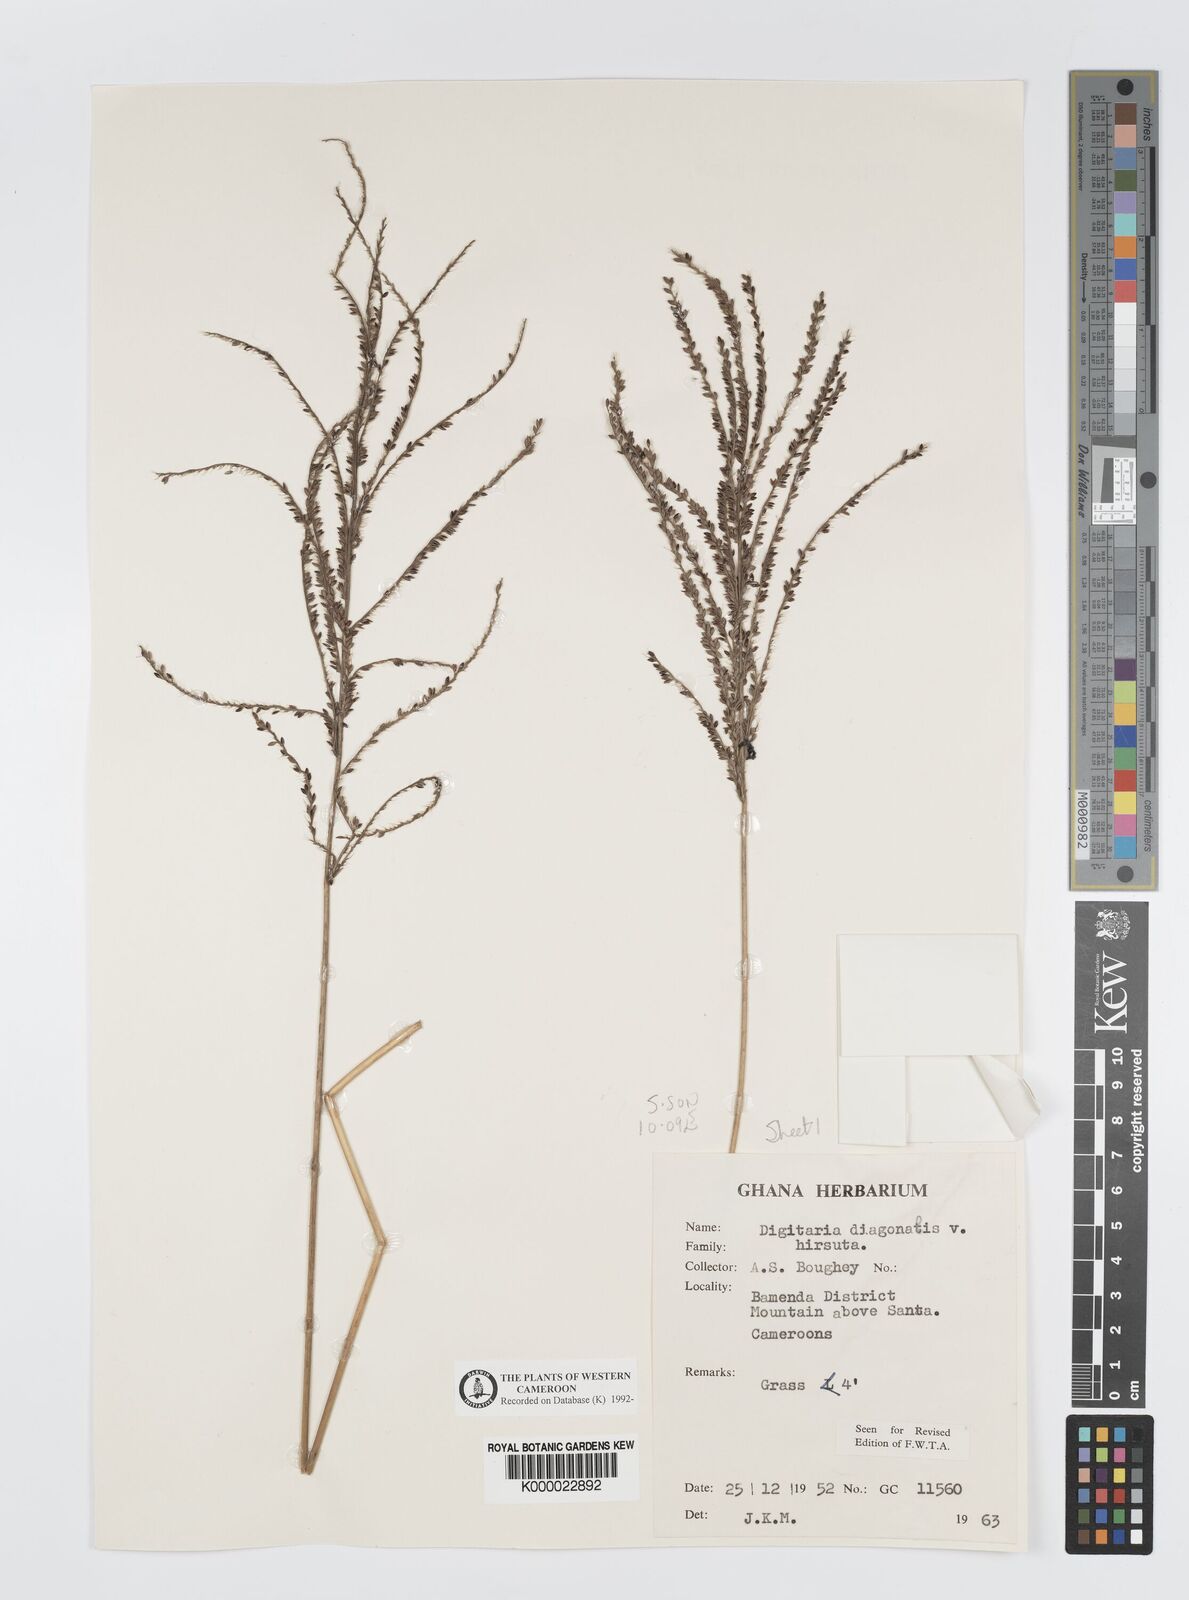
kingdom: Plantae
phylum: Tracheophyta
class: Liliopsida
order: Poales
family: Poaceae
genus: Digitaria
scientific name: Digitaria diagonalis
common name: Brown-seed finger grass
